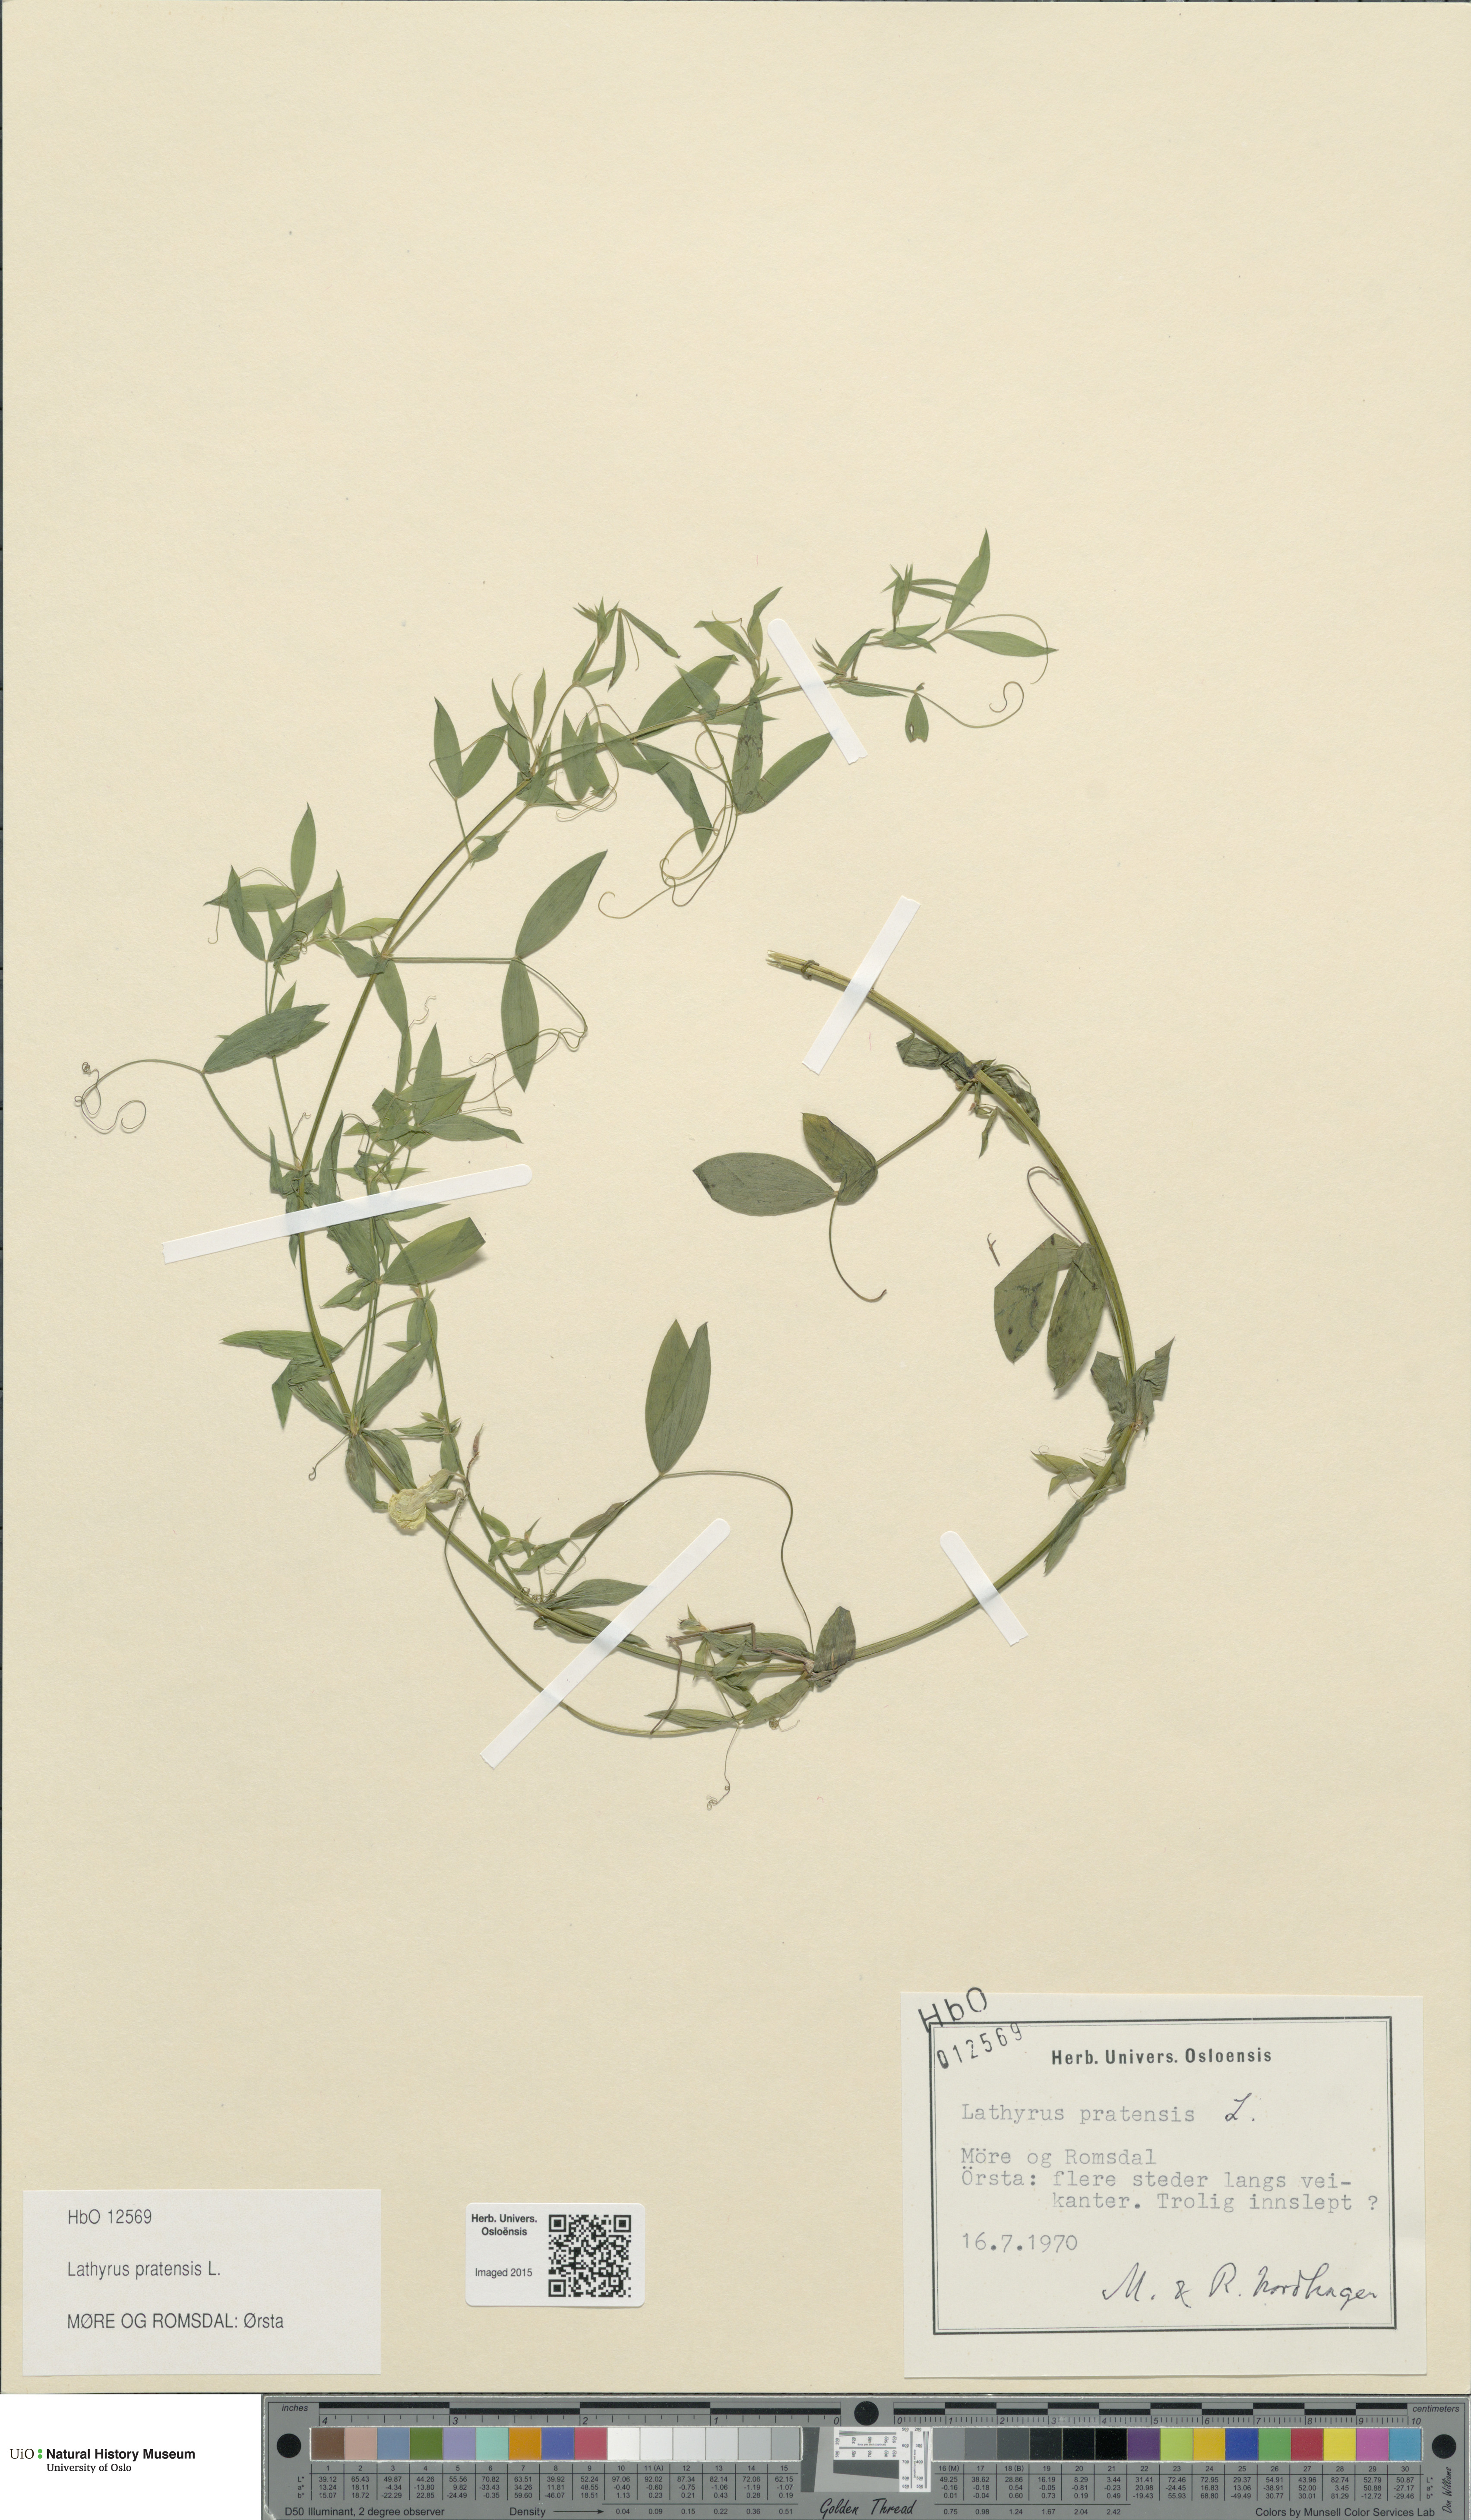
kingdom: Plantae
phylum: Tracheophyta
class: Magnoliopsida
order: Fabales
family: Fabaceae
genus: Lathyrus
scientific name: Lathyrus pratensis
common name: Meadow vetchling
